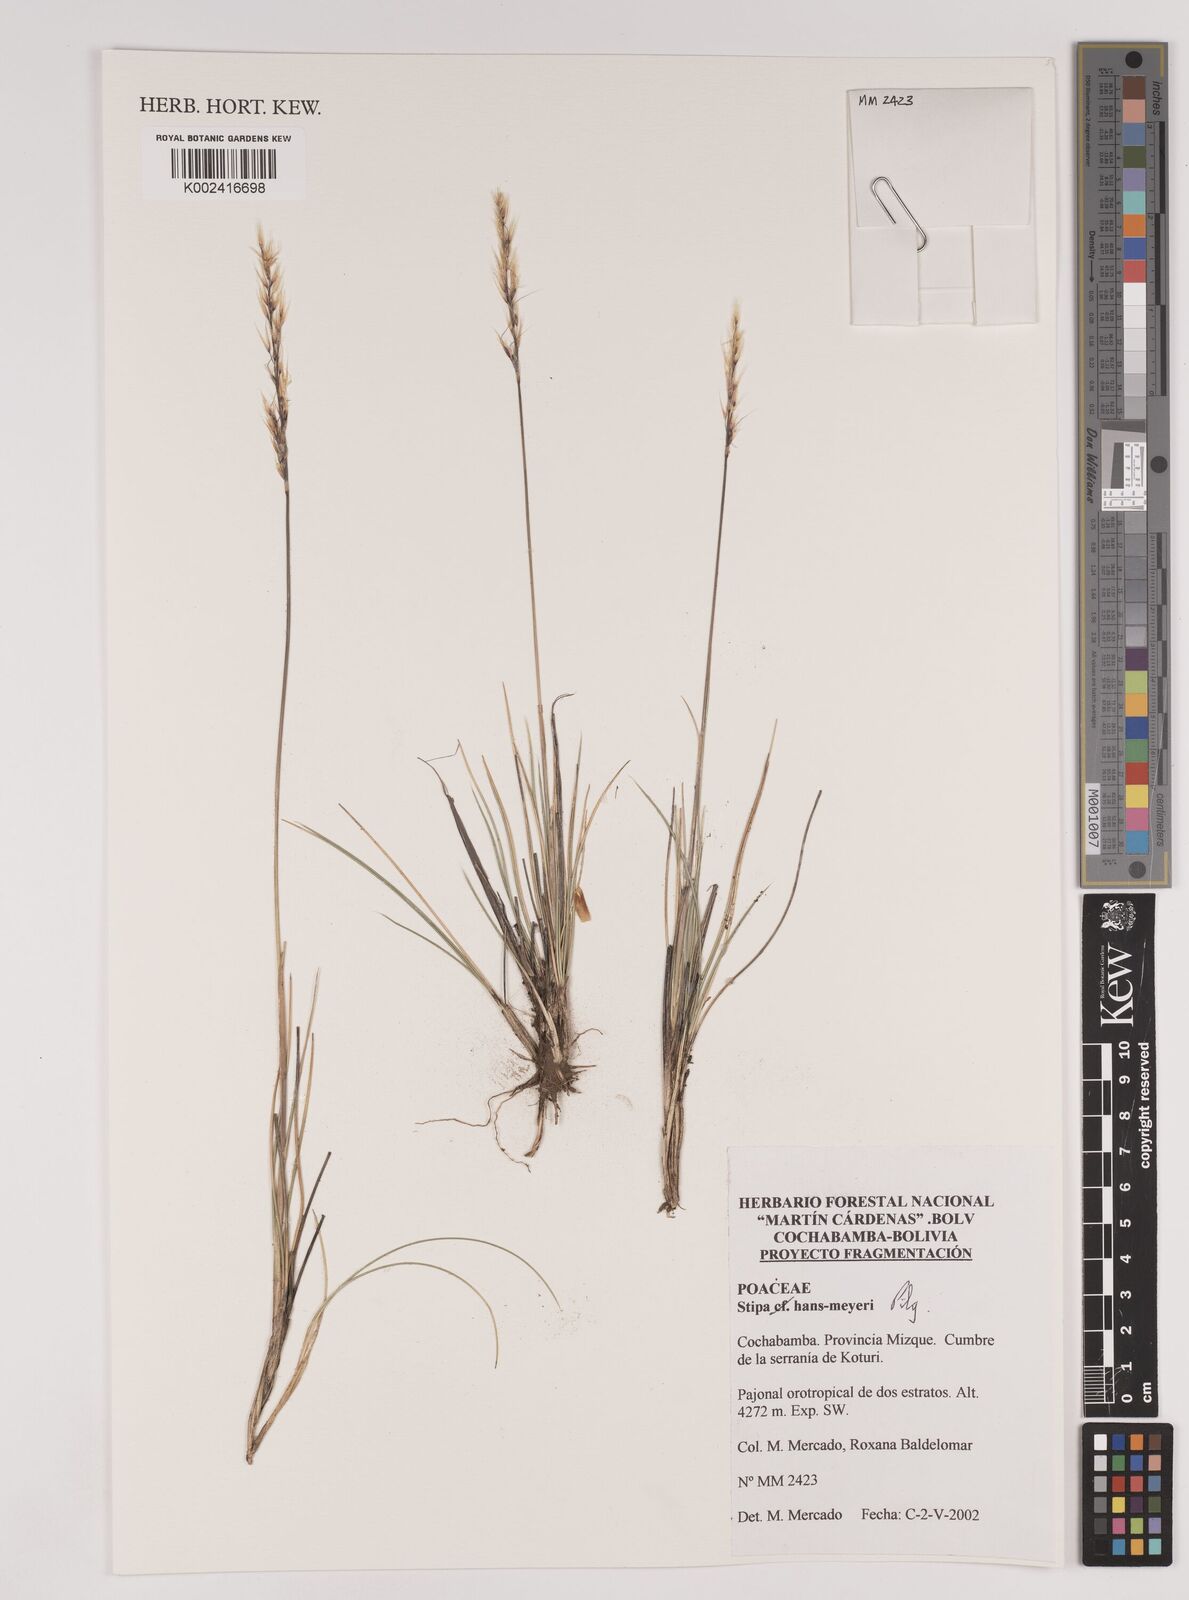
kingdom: Plantae
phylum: Tracheophyta
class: Liliopsida
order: Poales
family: Poaceae
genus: Stipa
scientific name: Stipa hans-meyeri
